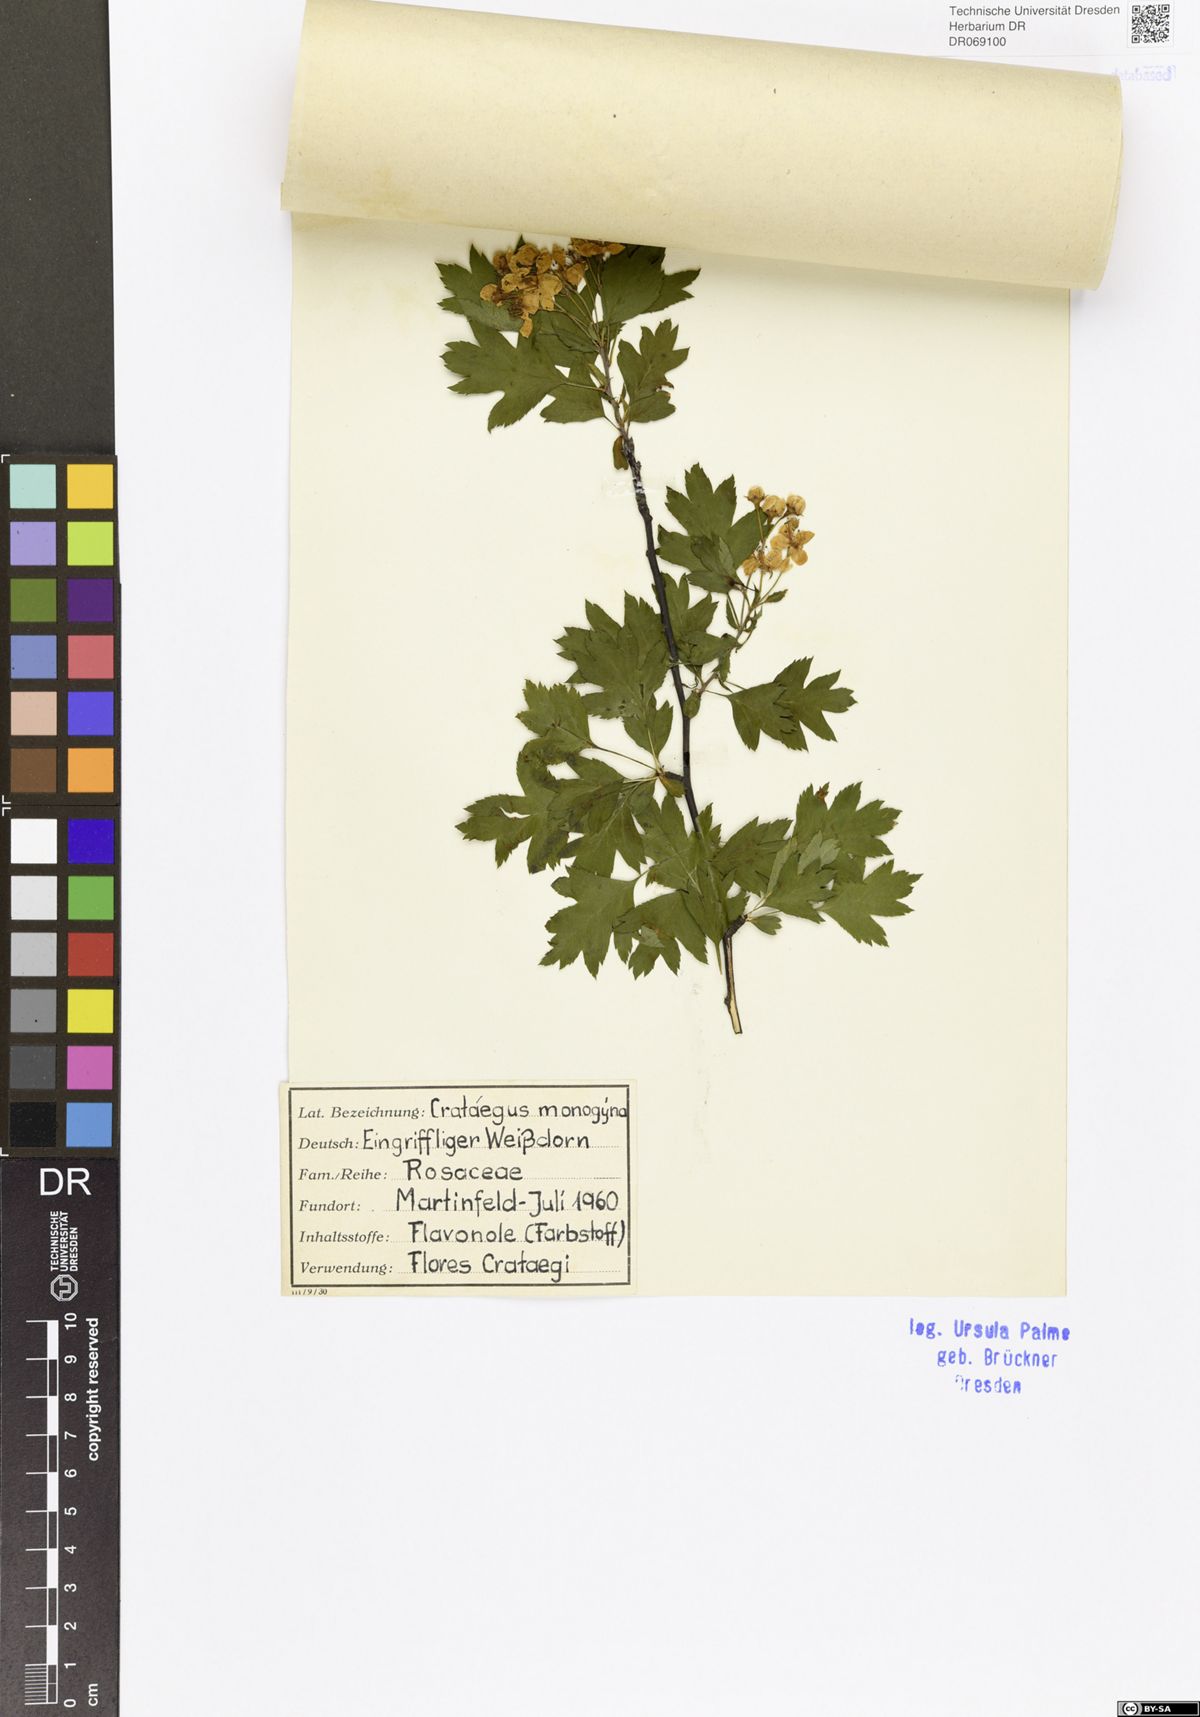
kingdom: Plantae
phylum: Tracheophyta
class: Magnoliopsida
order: Rosales
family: Rosaceae
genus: Crataegus
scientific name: Crataegus monogyna
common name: Hawthorn
